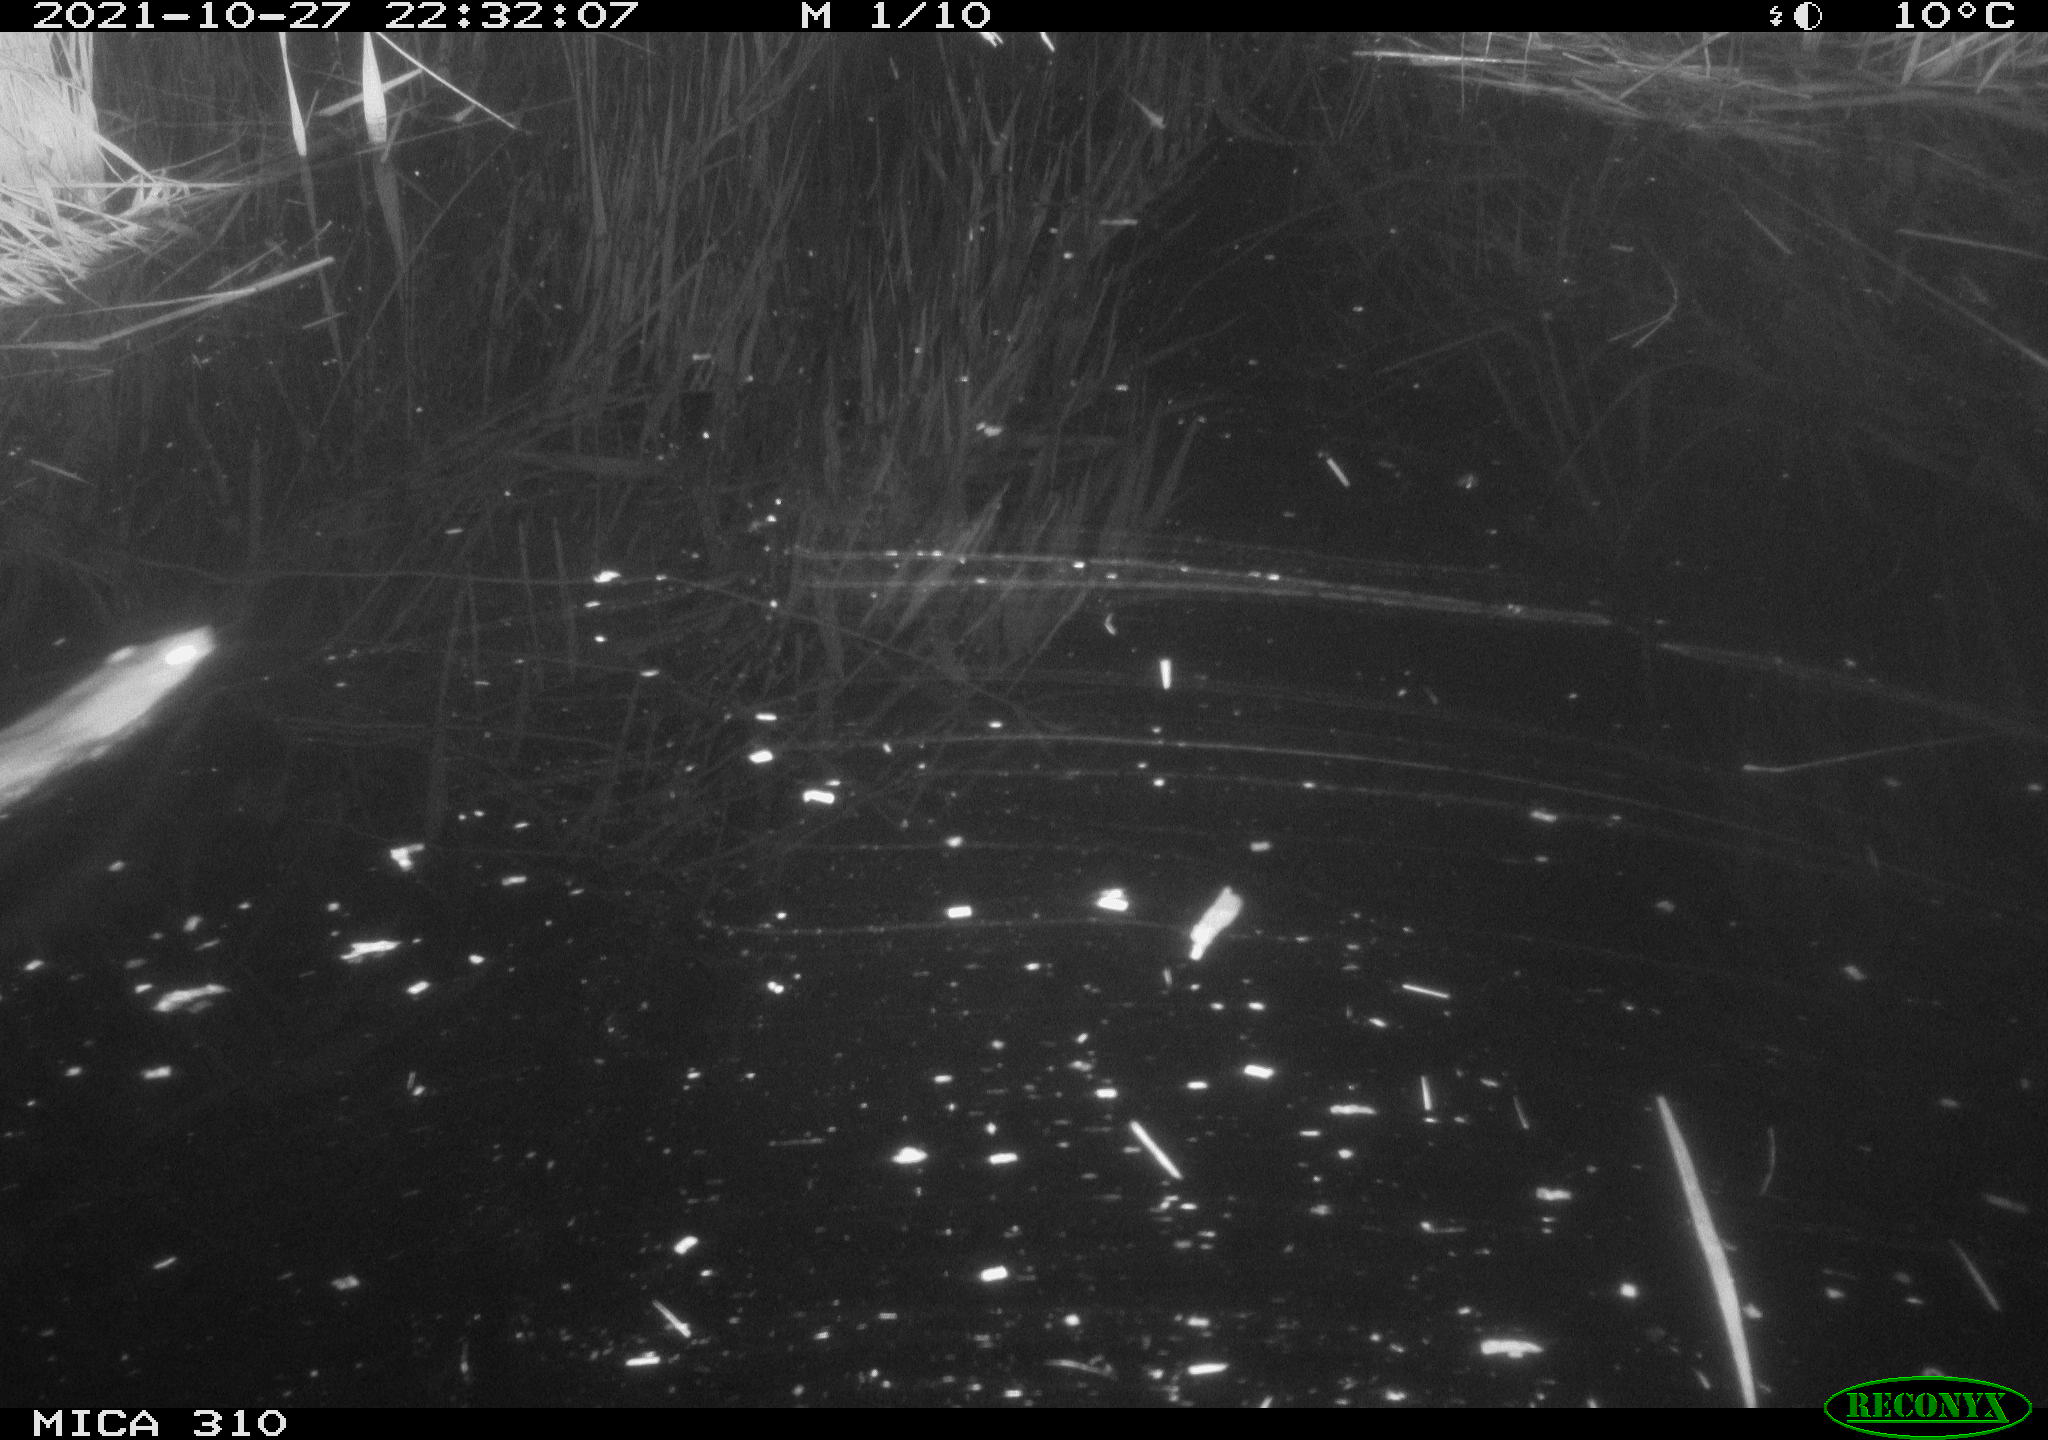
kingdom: Animalia
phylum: Chordata
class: Mammalia
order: Rodentia
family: Muridae
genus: Rattus
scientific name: Rattus norvegicus
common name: Brown rat
